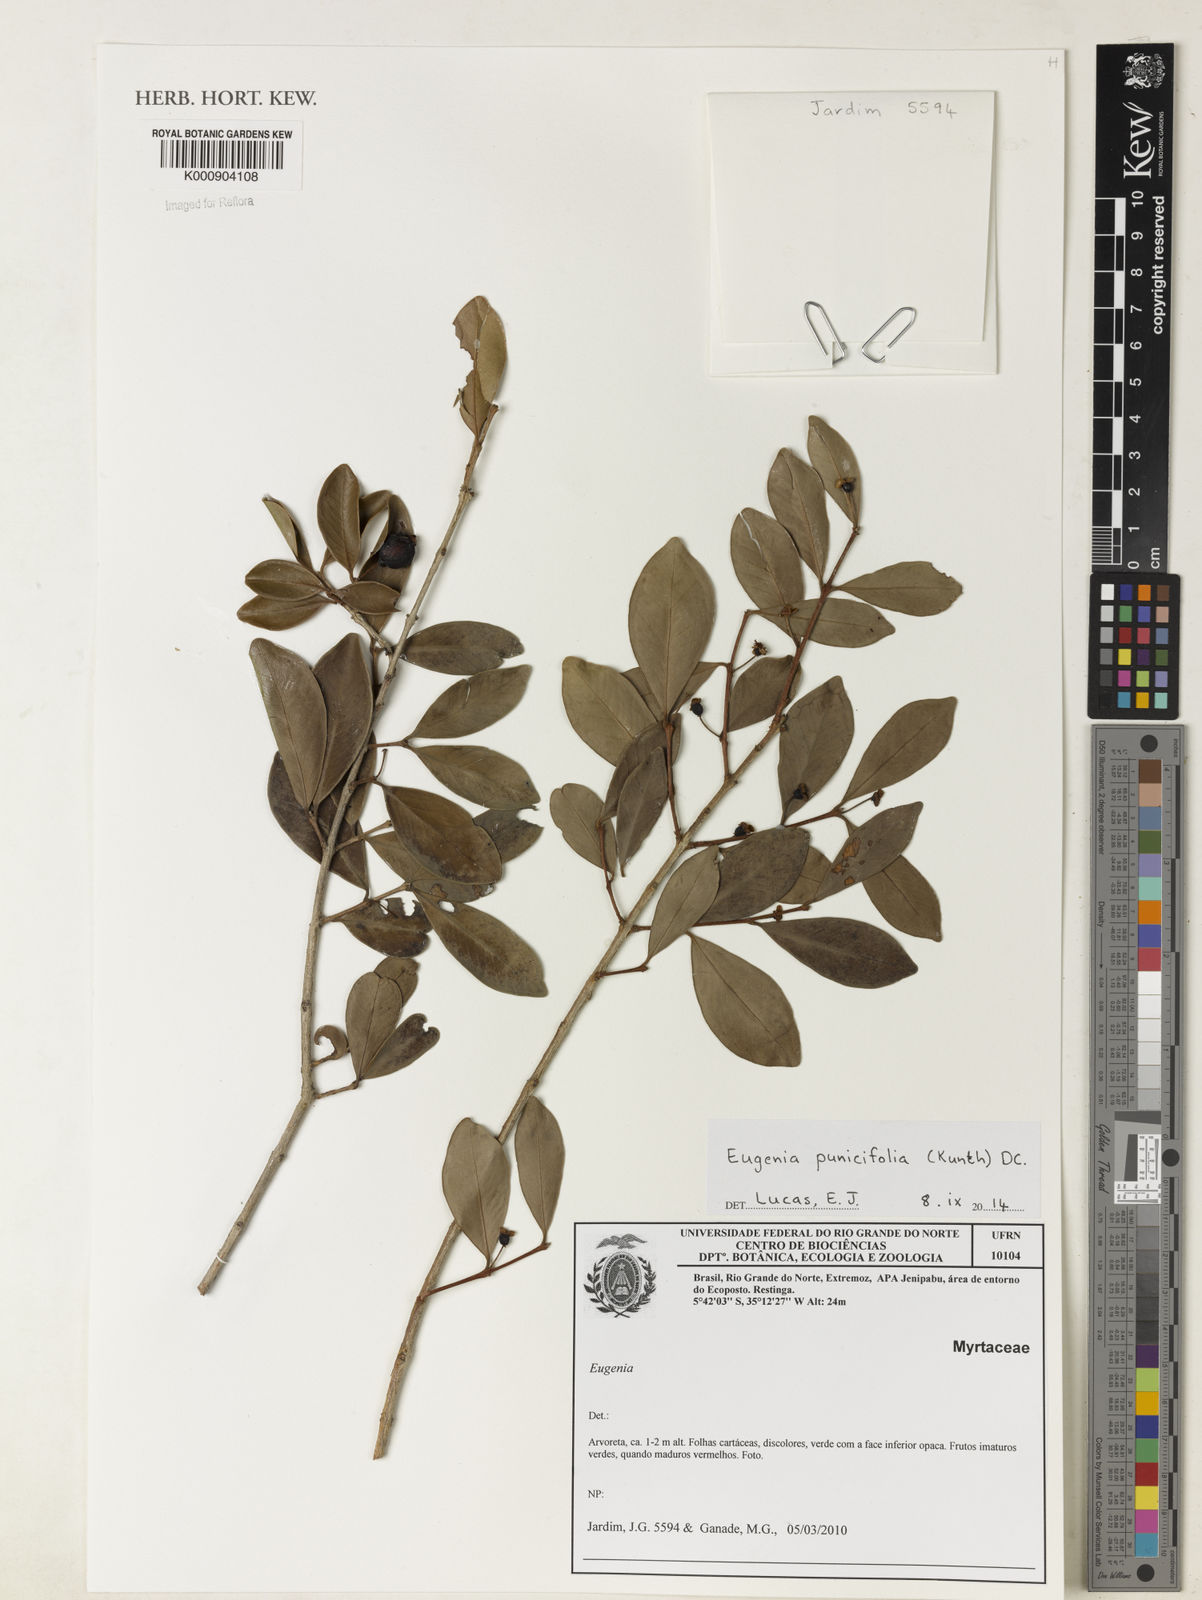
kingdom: Plantae
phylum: Tracheophyta
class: Magnoliopsida
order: Myrtales
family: Myrtaceae
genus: Eugenia
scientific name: Eugenia punicifolia
